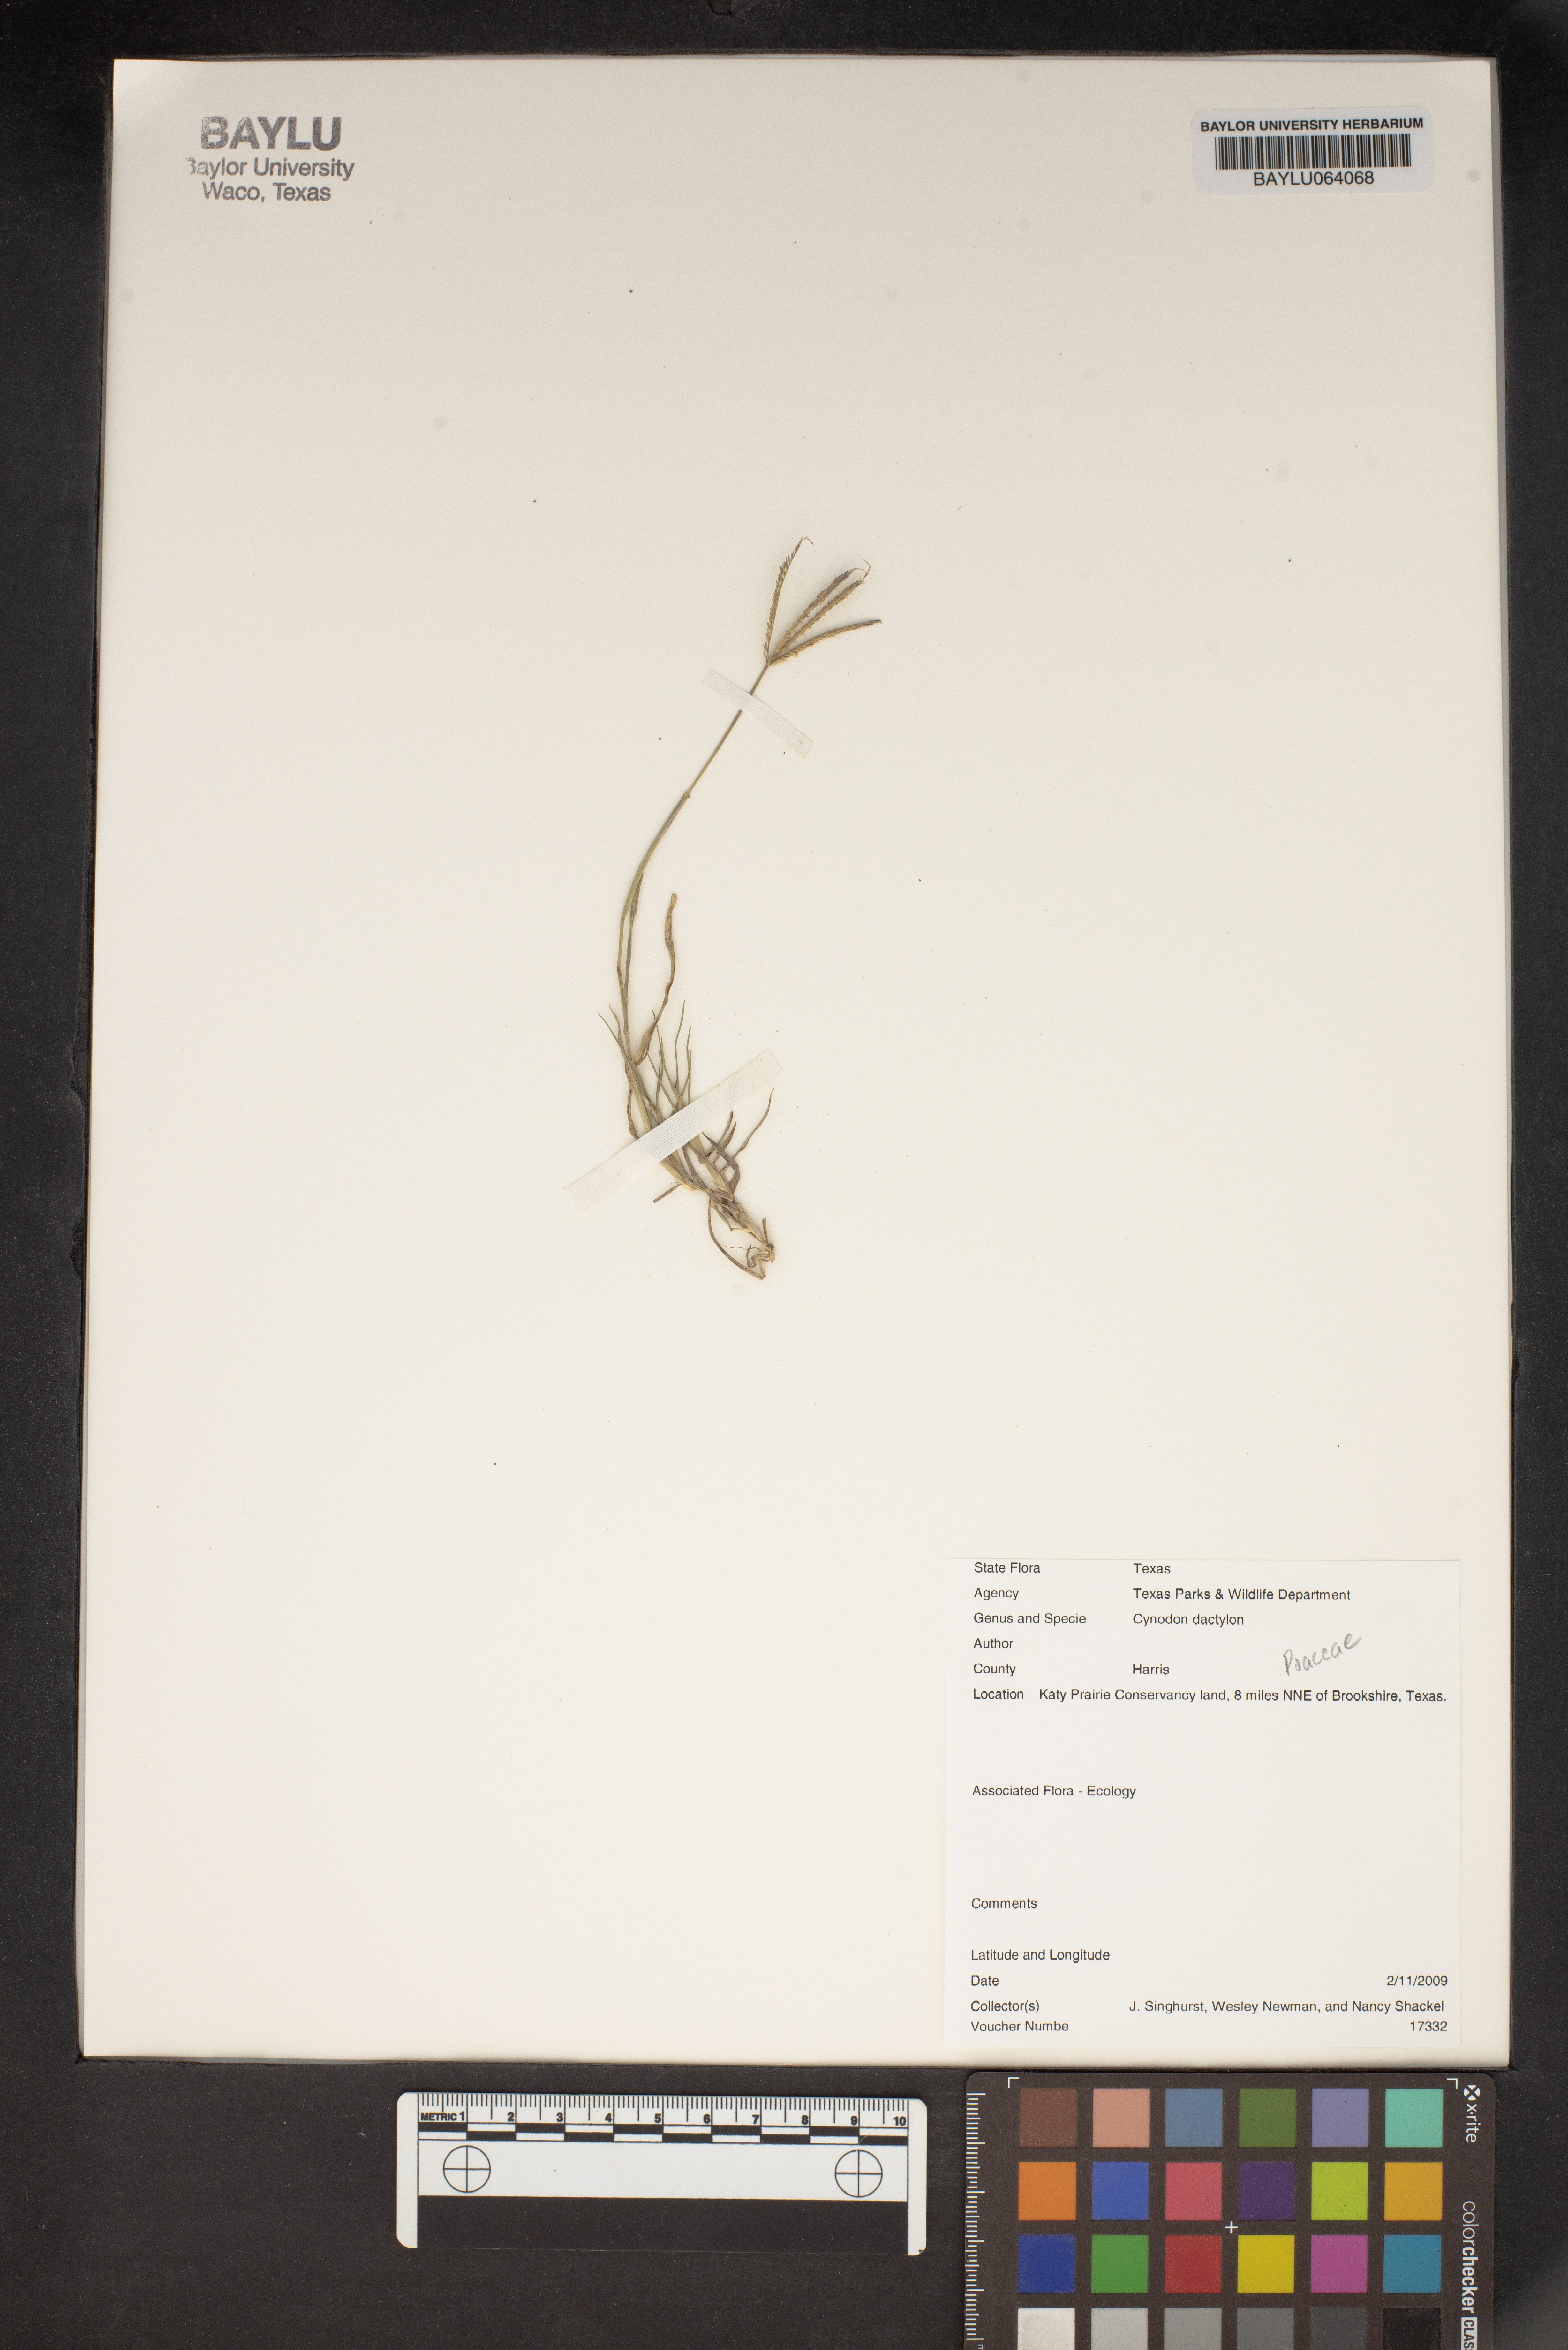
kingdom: Plantae
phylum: Tracheophyta
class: Liliopsida
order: Poales
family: Poaceae
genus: Cynodon
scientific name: Cynodon dactylon
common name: Bermuda grass
